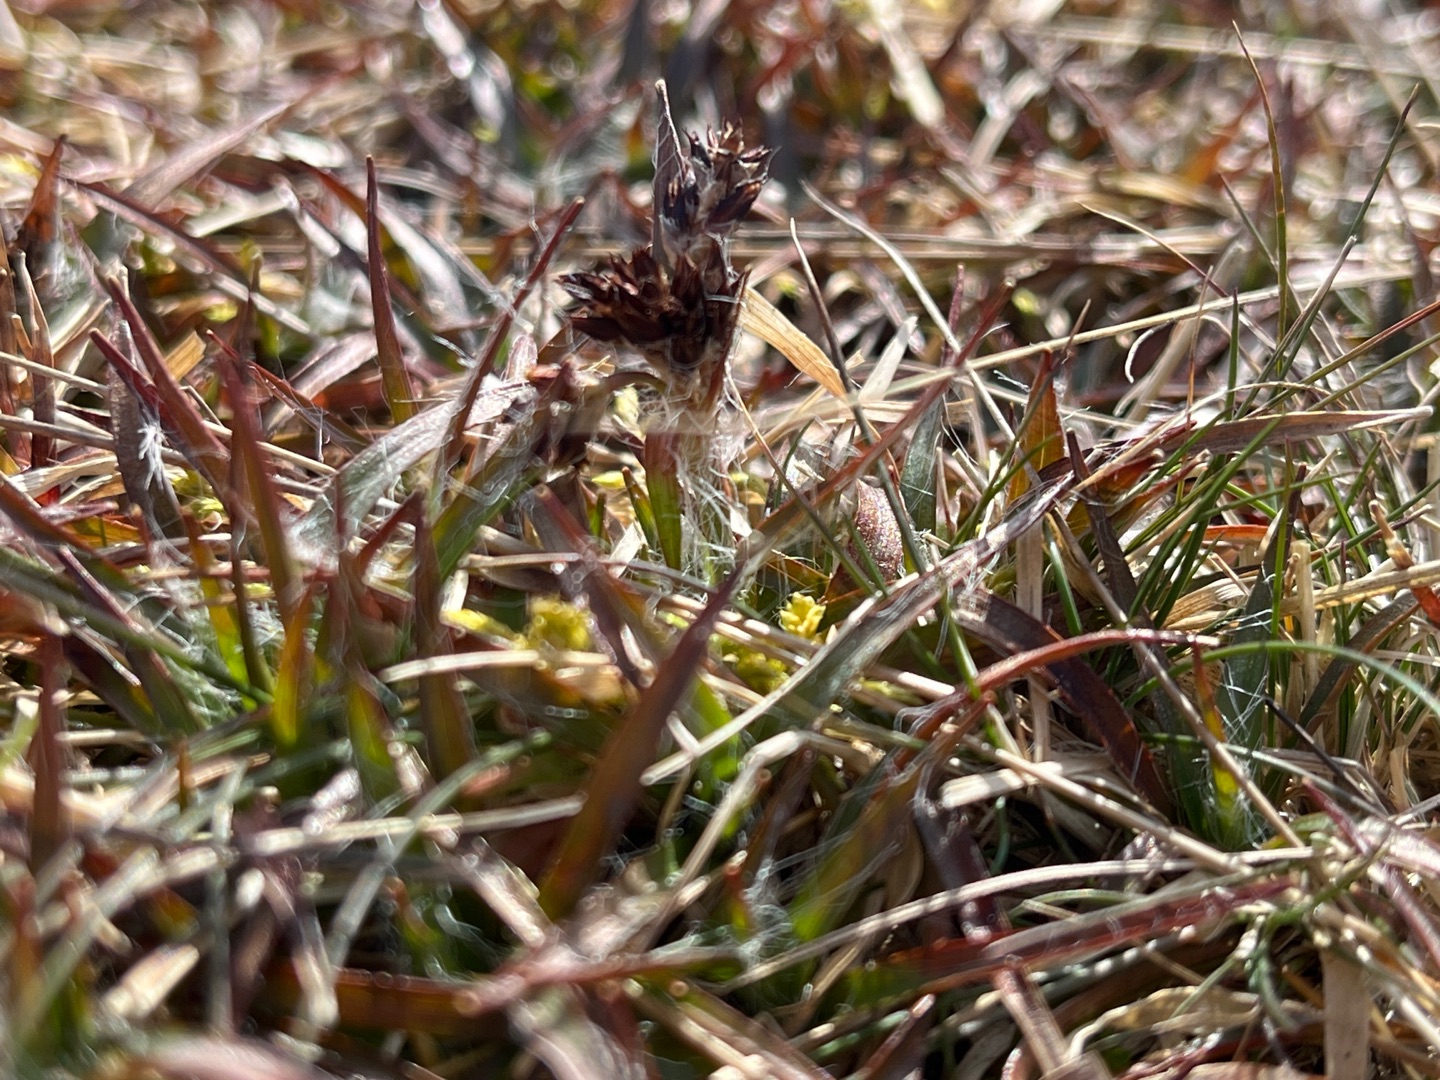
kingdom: Plantae
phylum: Tracheophyta
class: Liliopsida
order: Poales
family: Juncaceae
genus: Luzula
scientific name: Luzula campestris
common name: Mark-frytle
